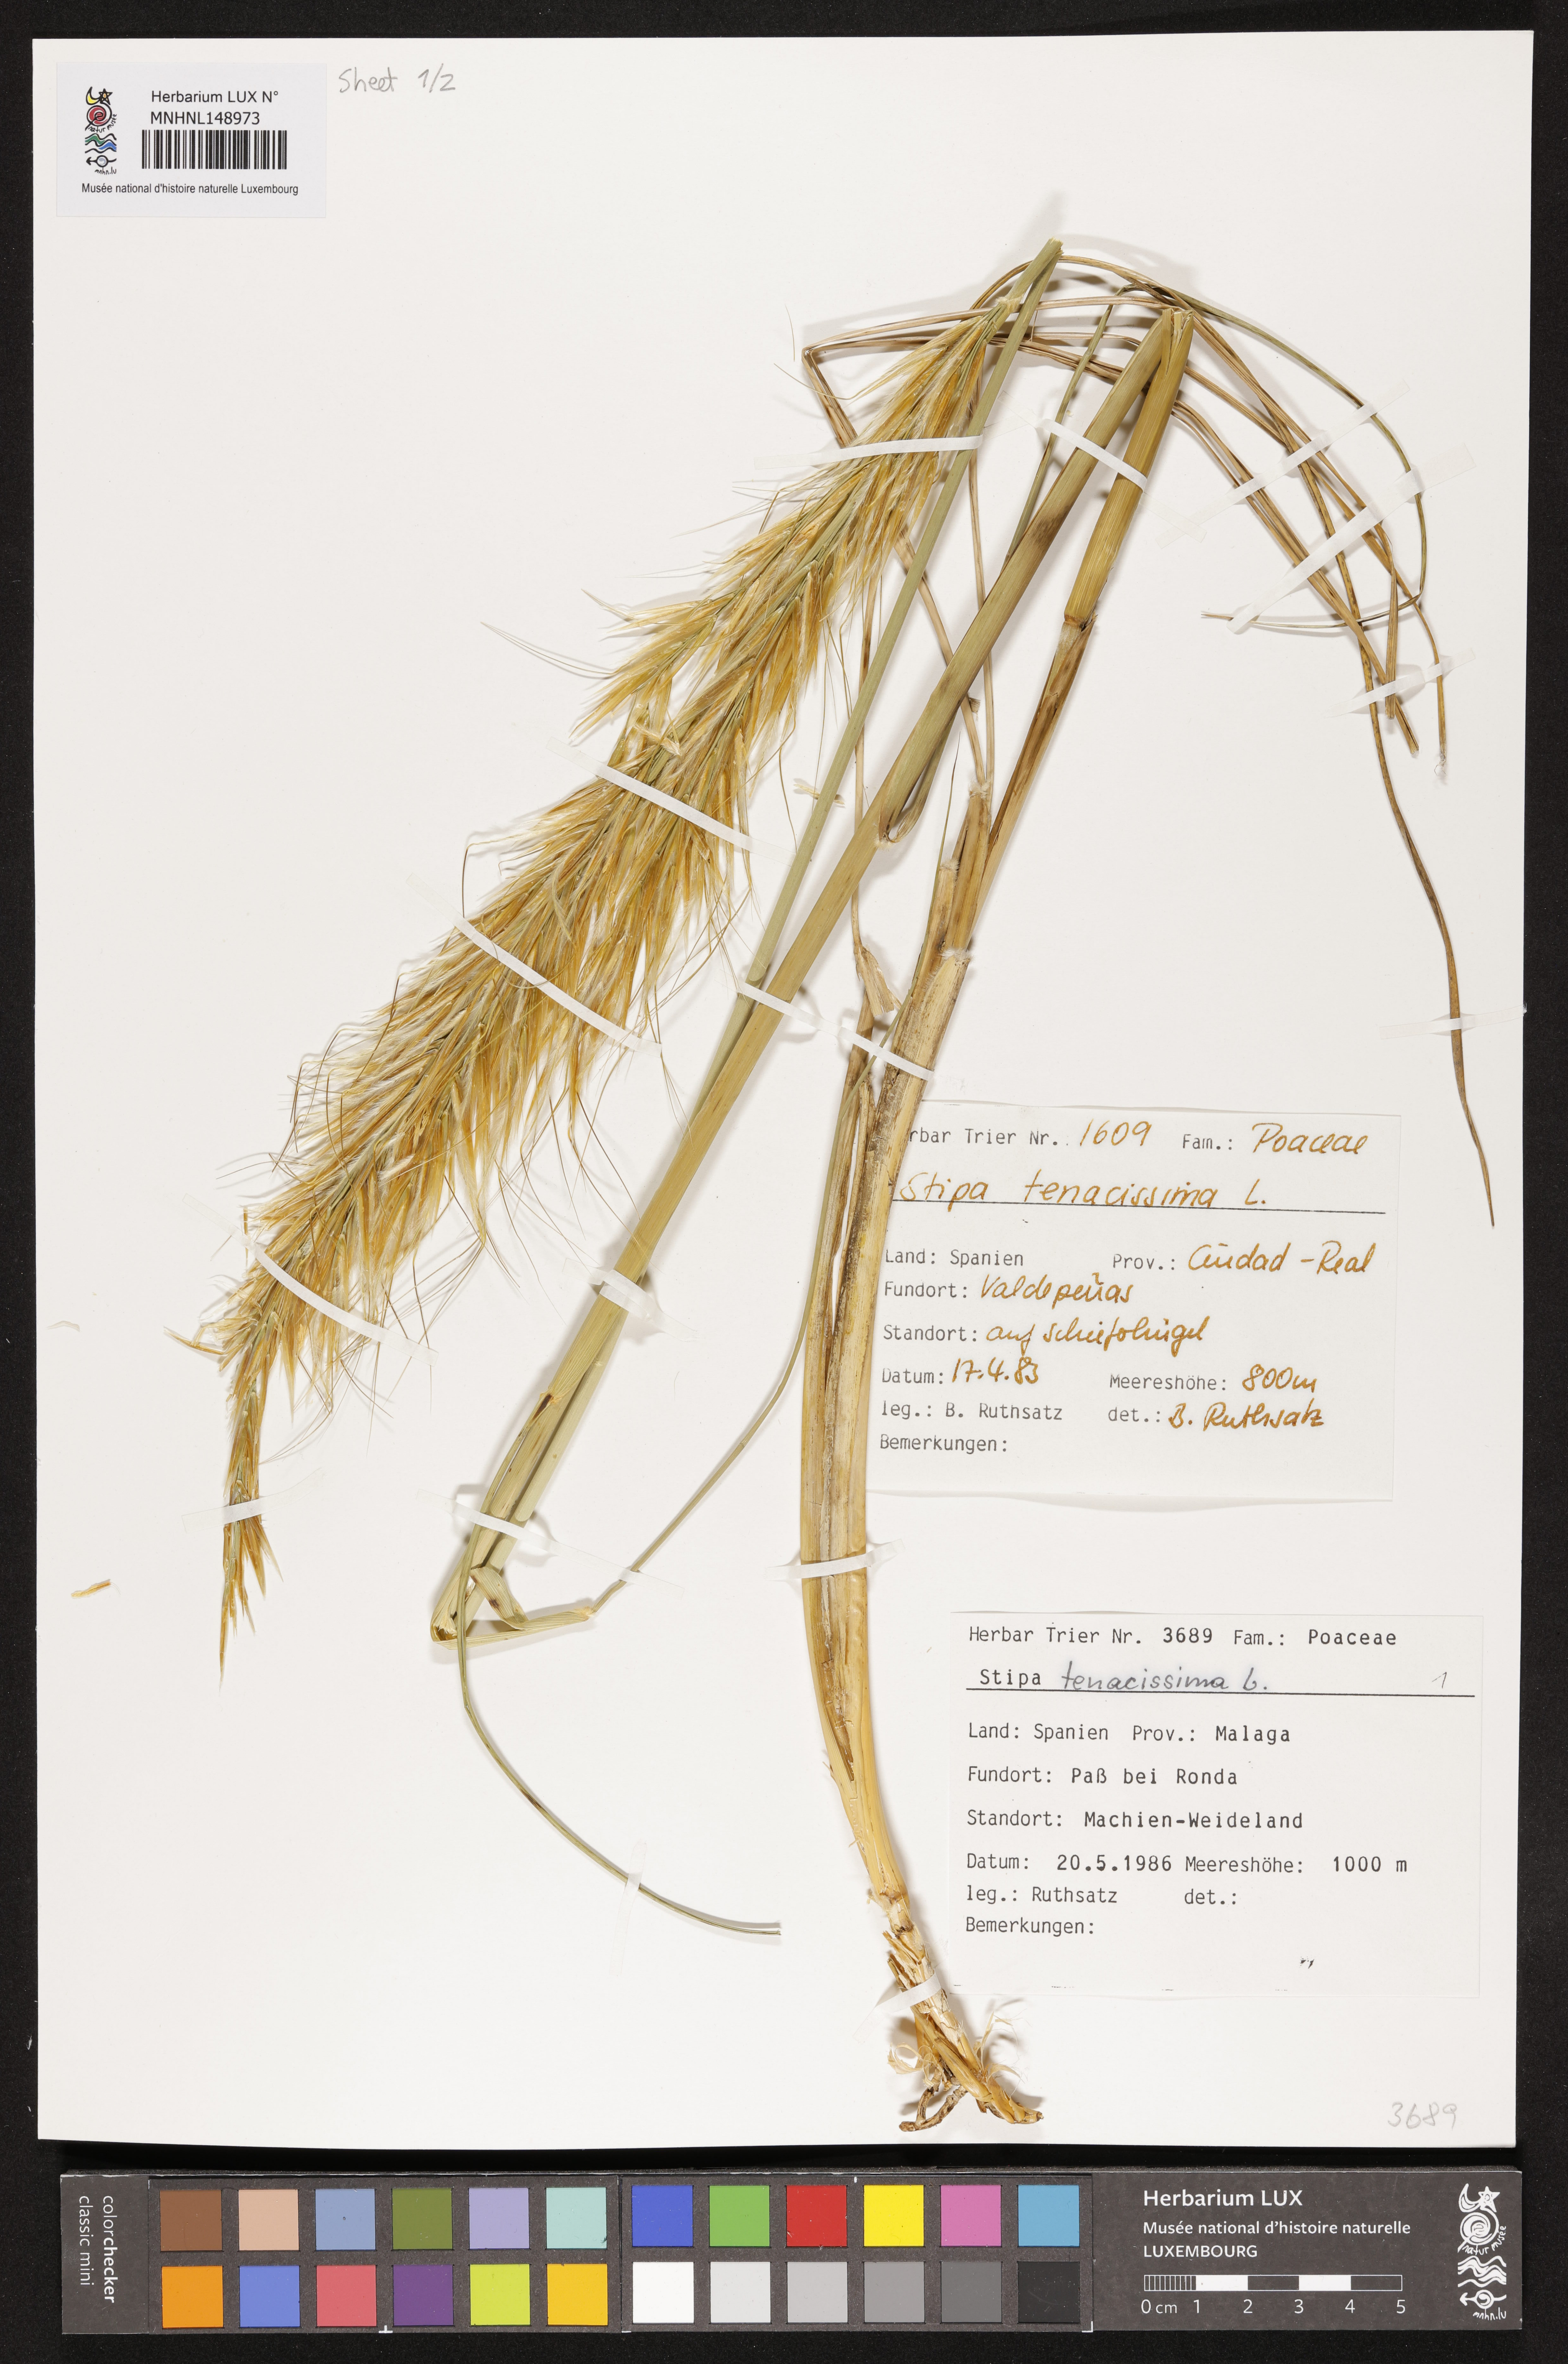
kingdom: Plantae
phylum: Tracheophyta
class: Liliopsida
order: Poales
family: Poaceae
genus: Macrochloa
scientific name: Macrochloa tenacissima
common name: Alfa grass
